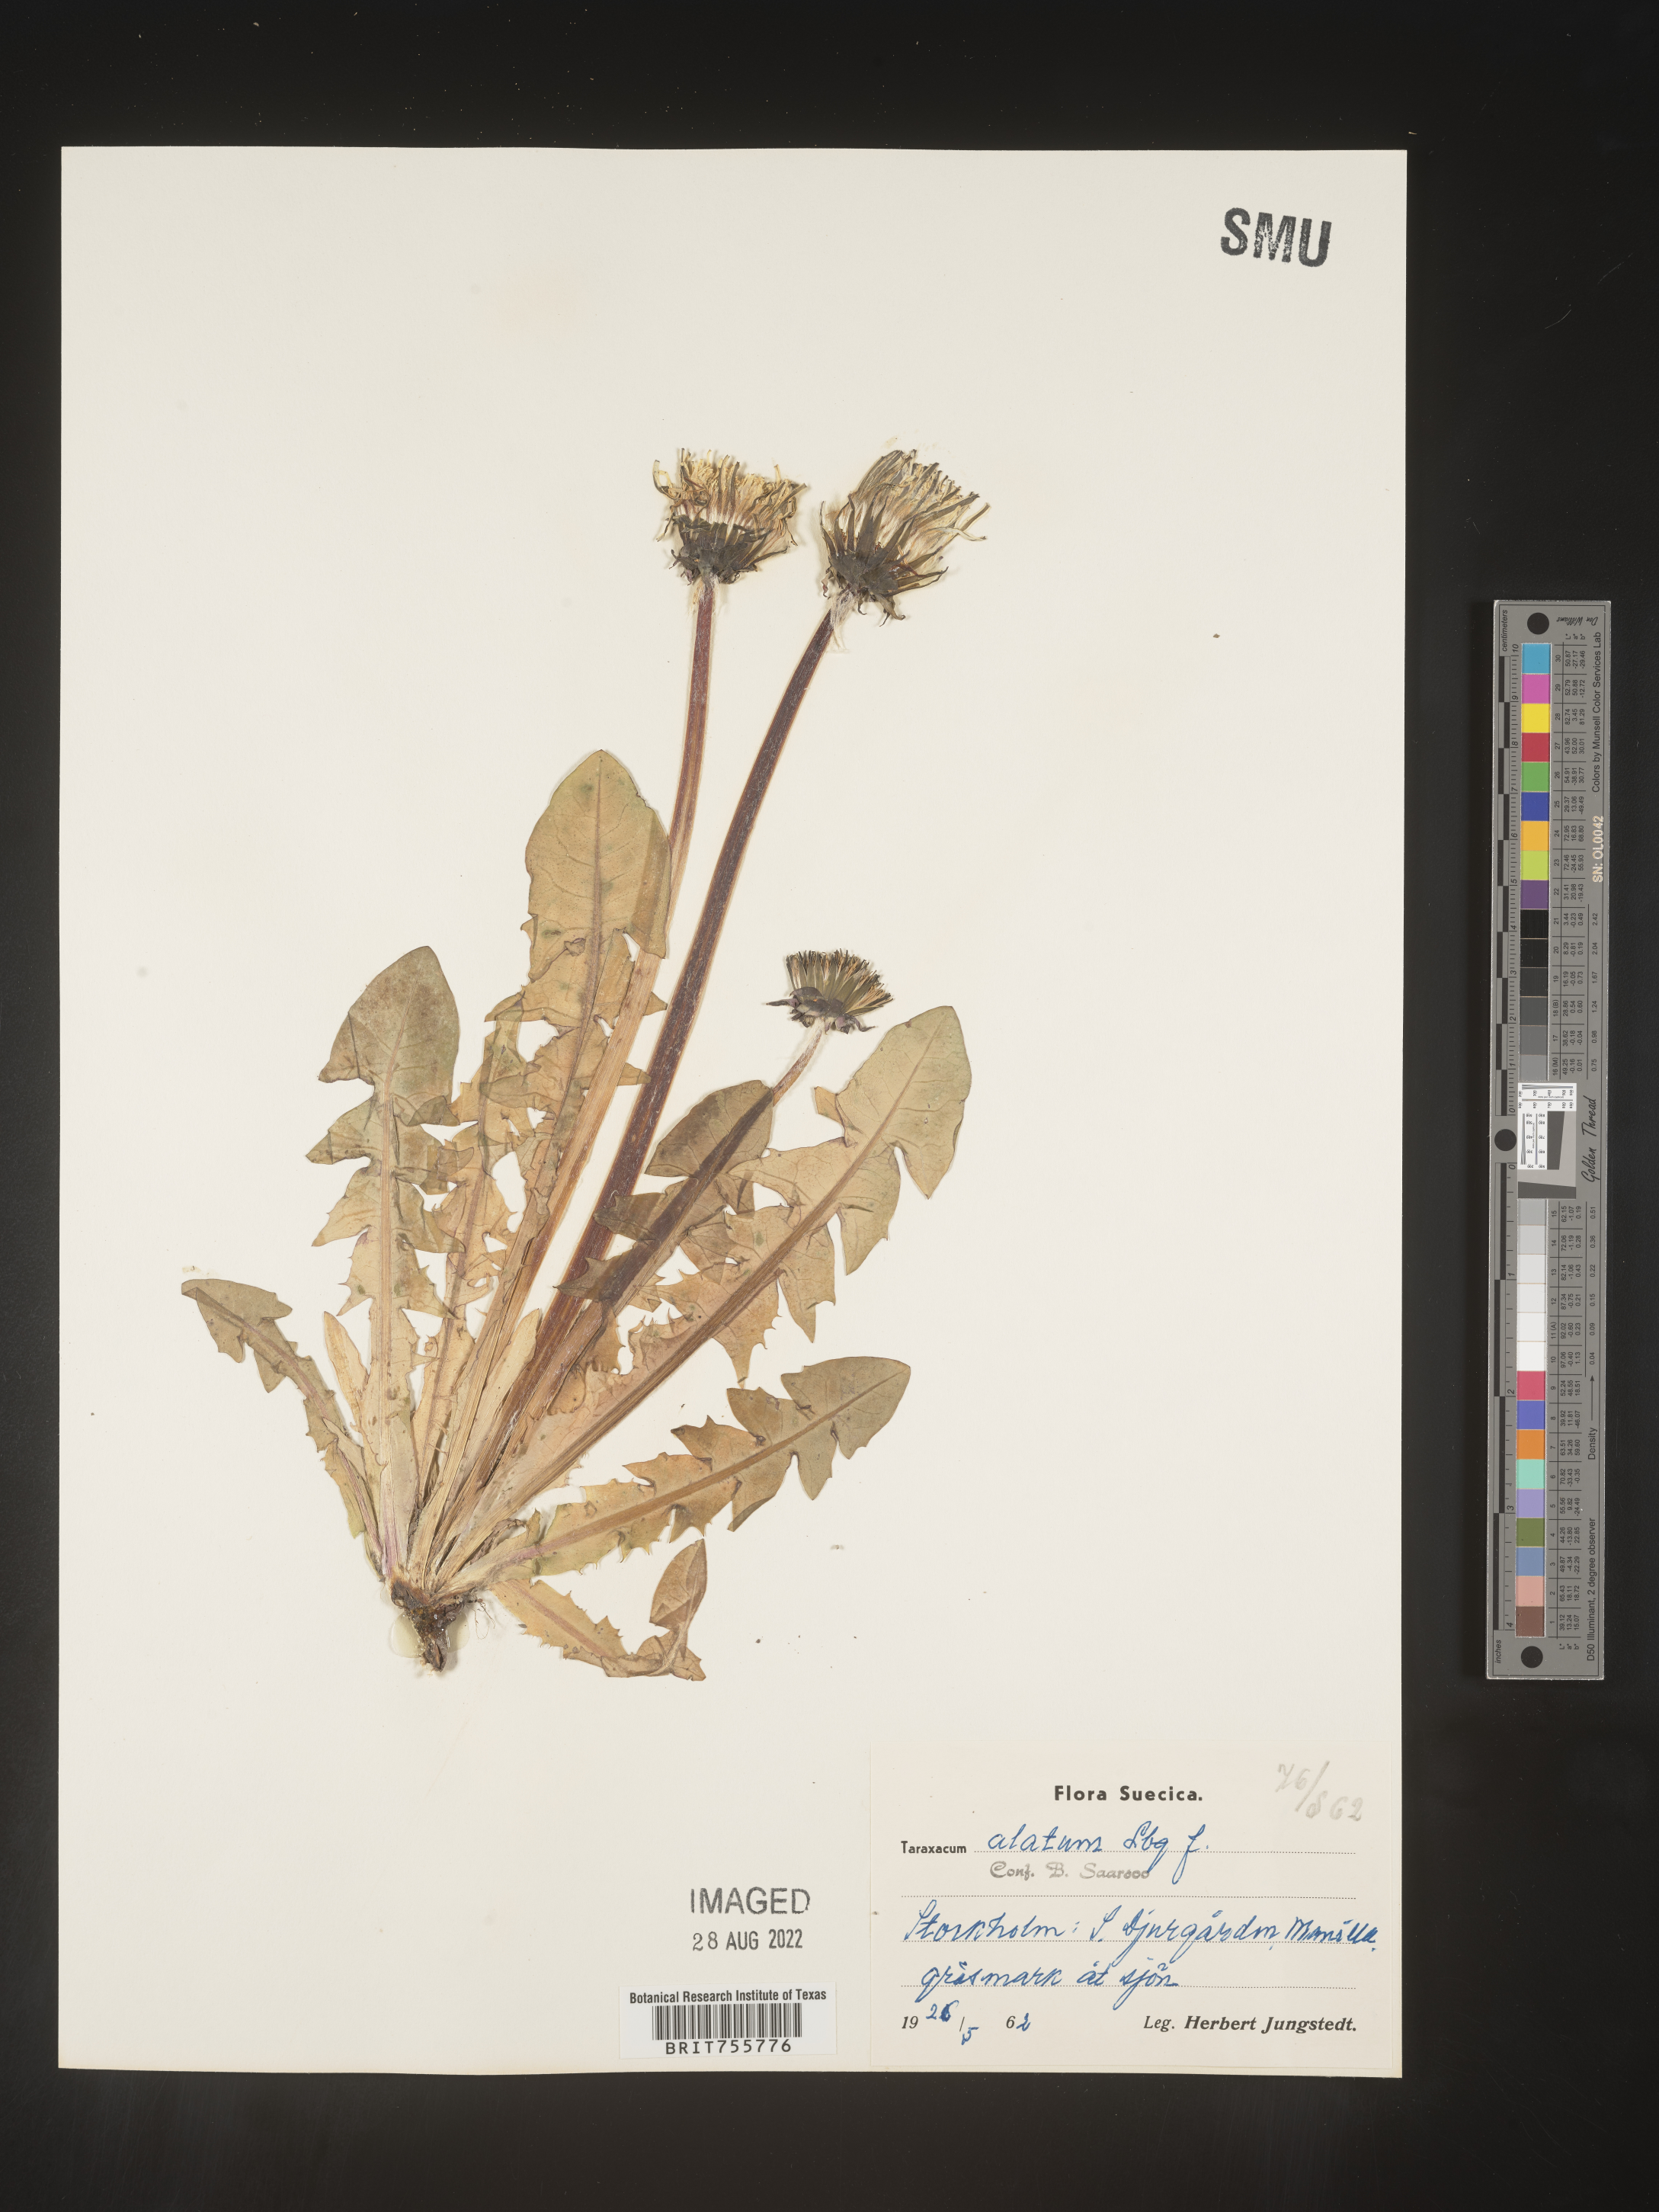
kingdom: Plantae
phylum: Tracheophyta
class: Magnoliopsida
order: Asterales
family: Asteraceae
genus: Taraxacum
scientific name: Taraxacum
